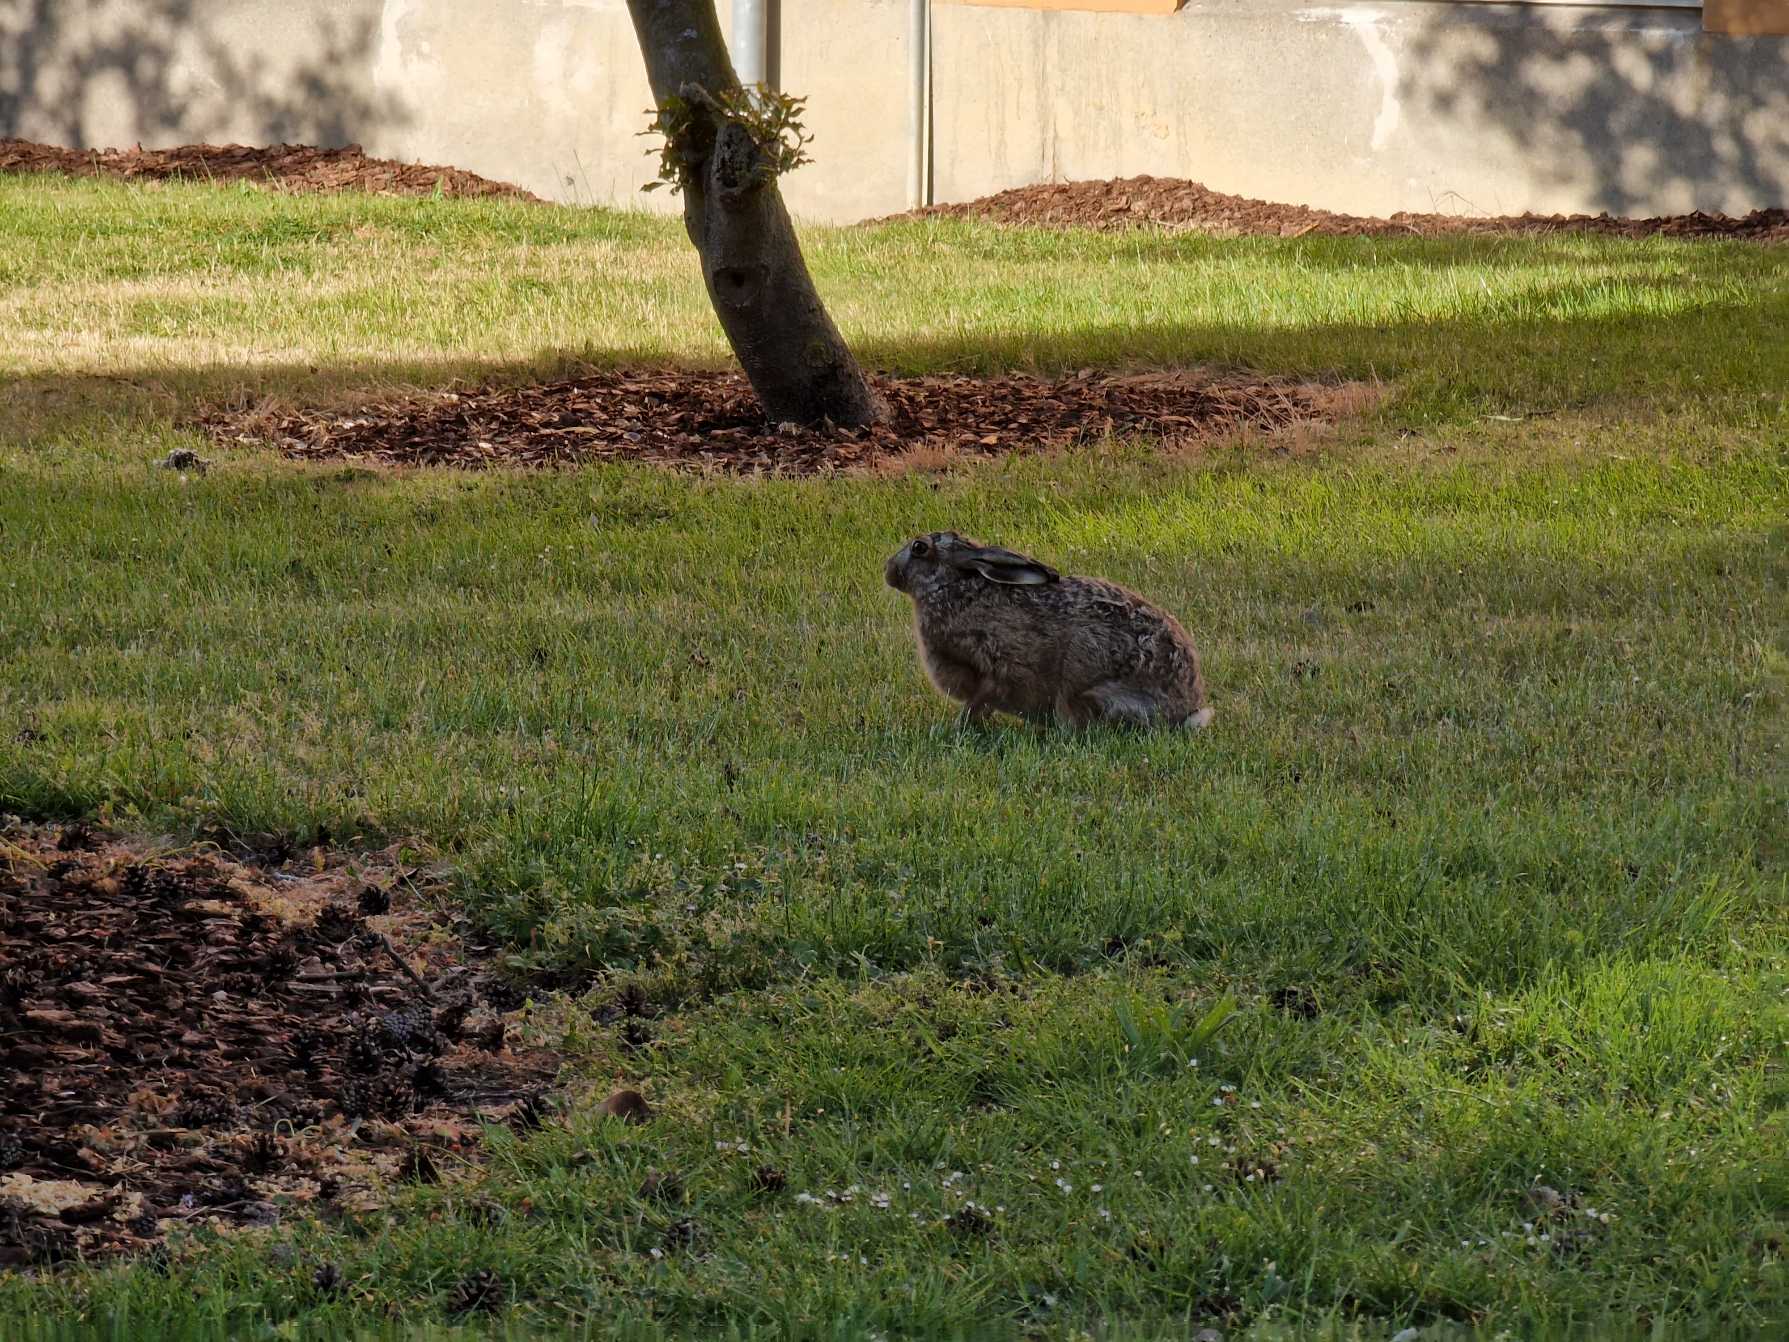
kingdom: Animalia
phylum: Chordata
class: Mammalia
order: Lagomorpha
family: Leporidae
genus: Lepus
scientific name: Lepus europaeus
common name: Hare
